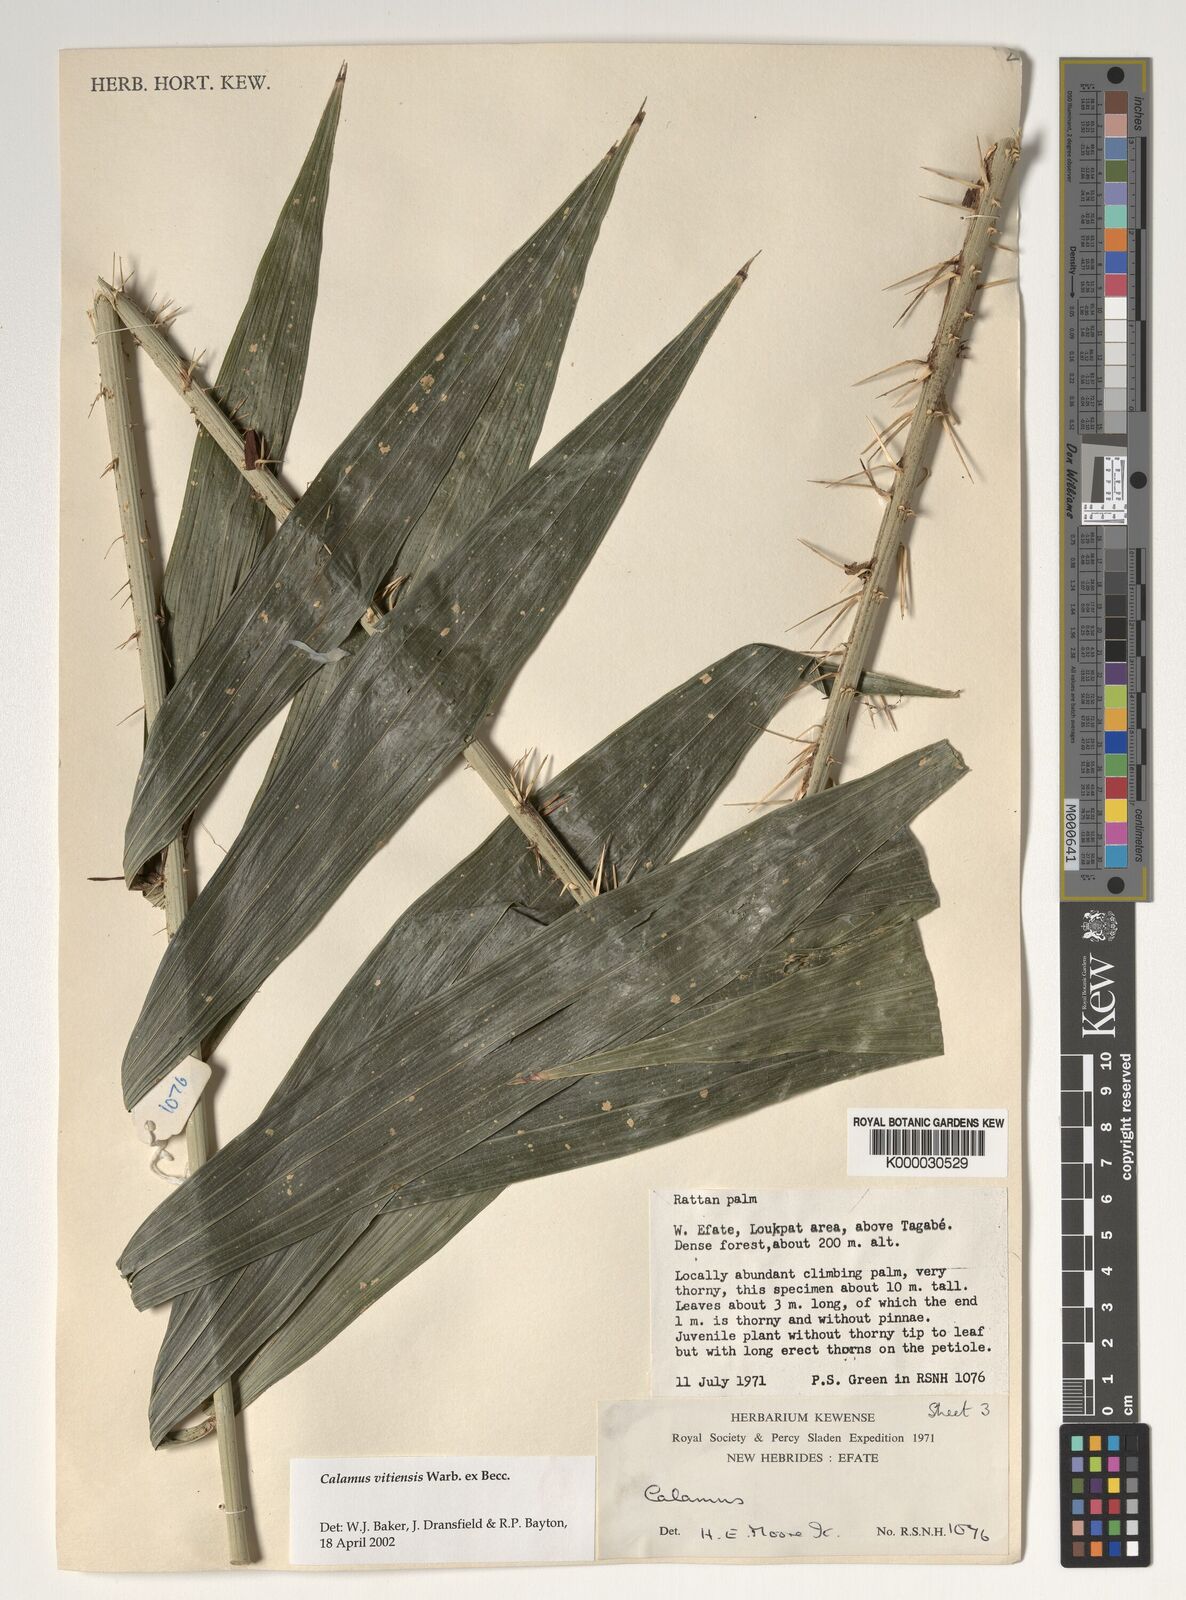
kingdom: Plantae
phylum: Tracheophyta
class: Liliopsida
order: Arecales
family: Arecaceae
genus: Calamus
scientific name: Calamus vitiensis
